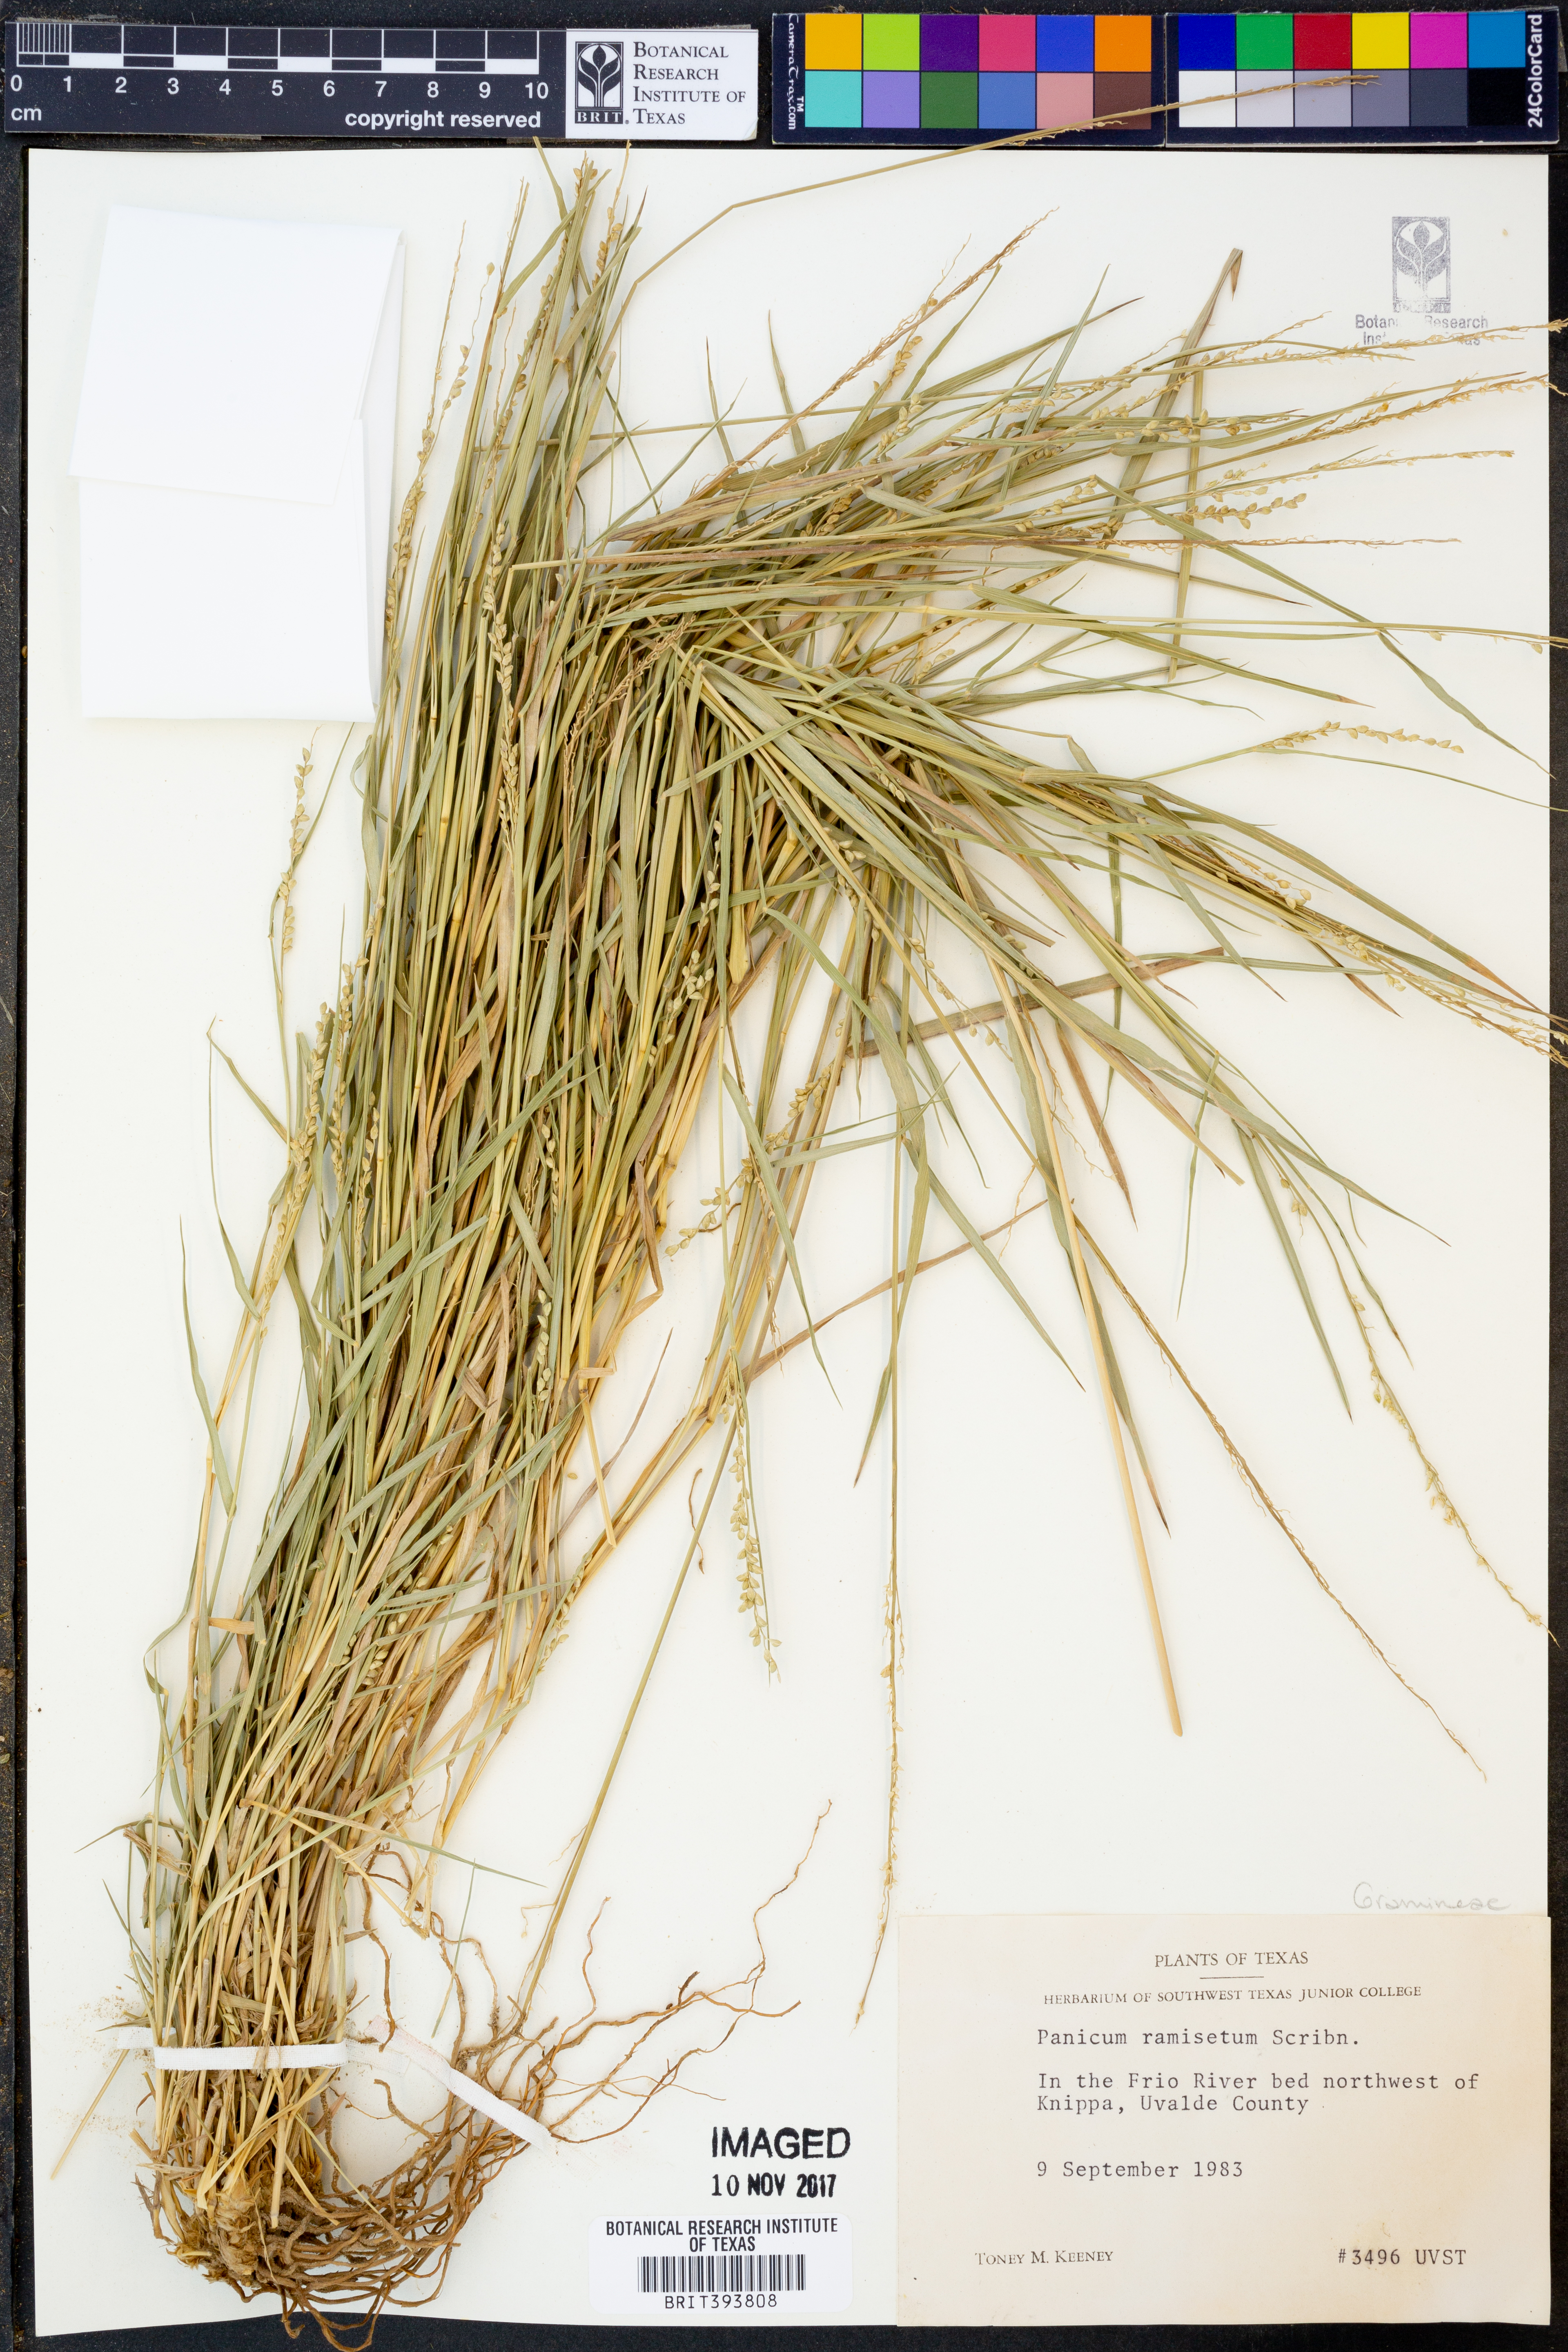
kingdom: Plantae
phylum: Tracheophyta
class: Liliopsida
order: Poales
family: Poaceae
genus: Setaria
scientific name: Setaria reverchonii
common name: Reverchon's bristle grass
